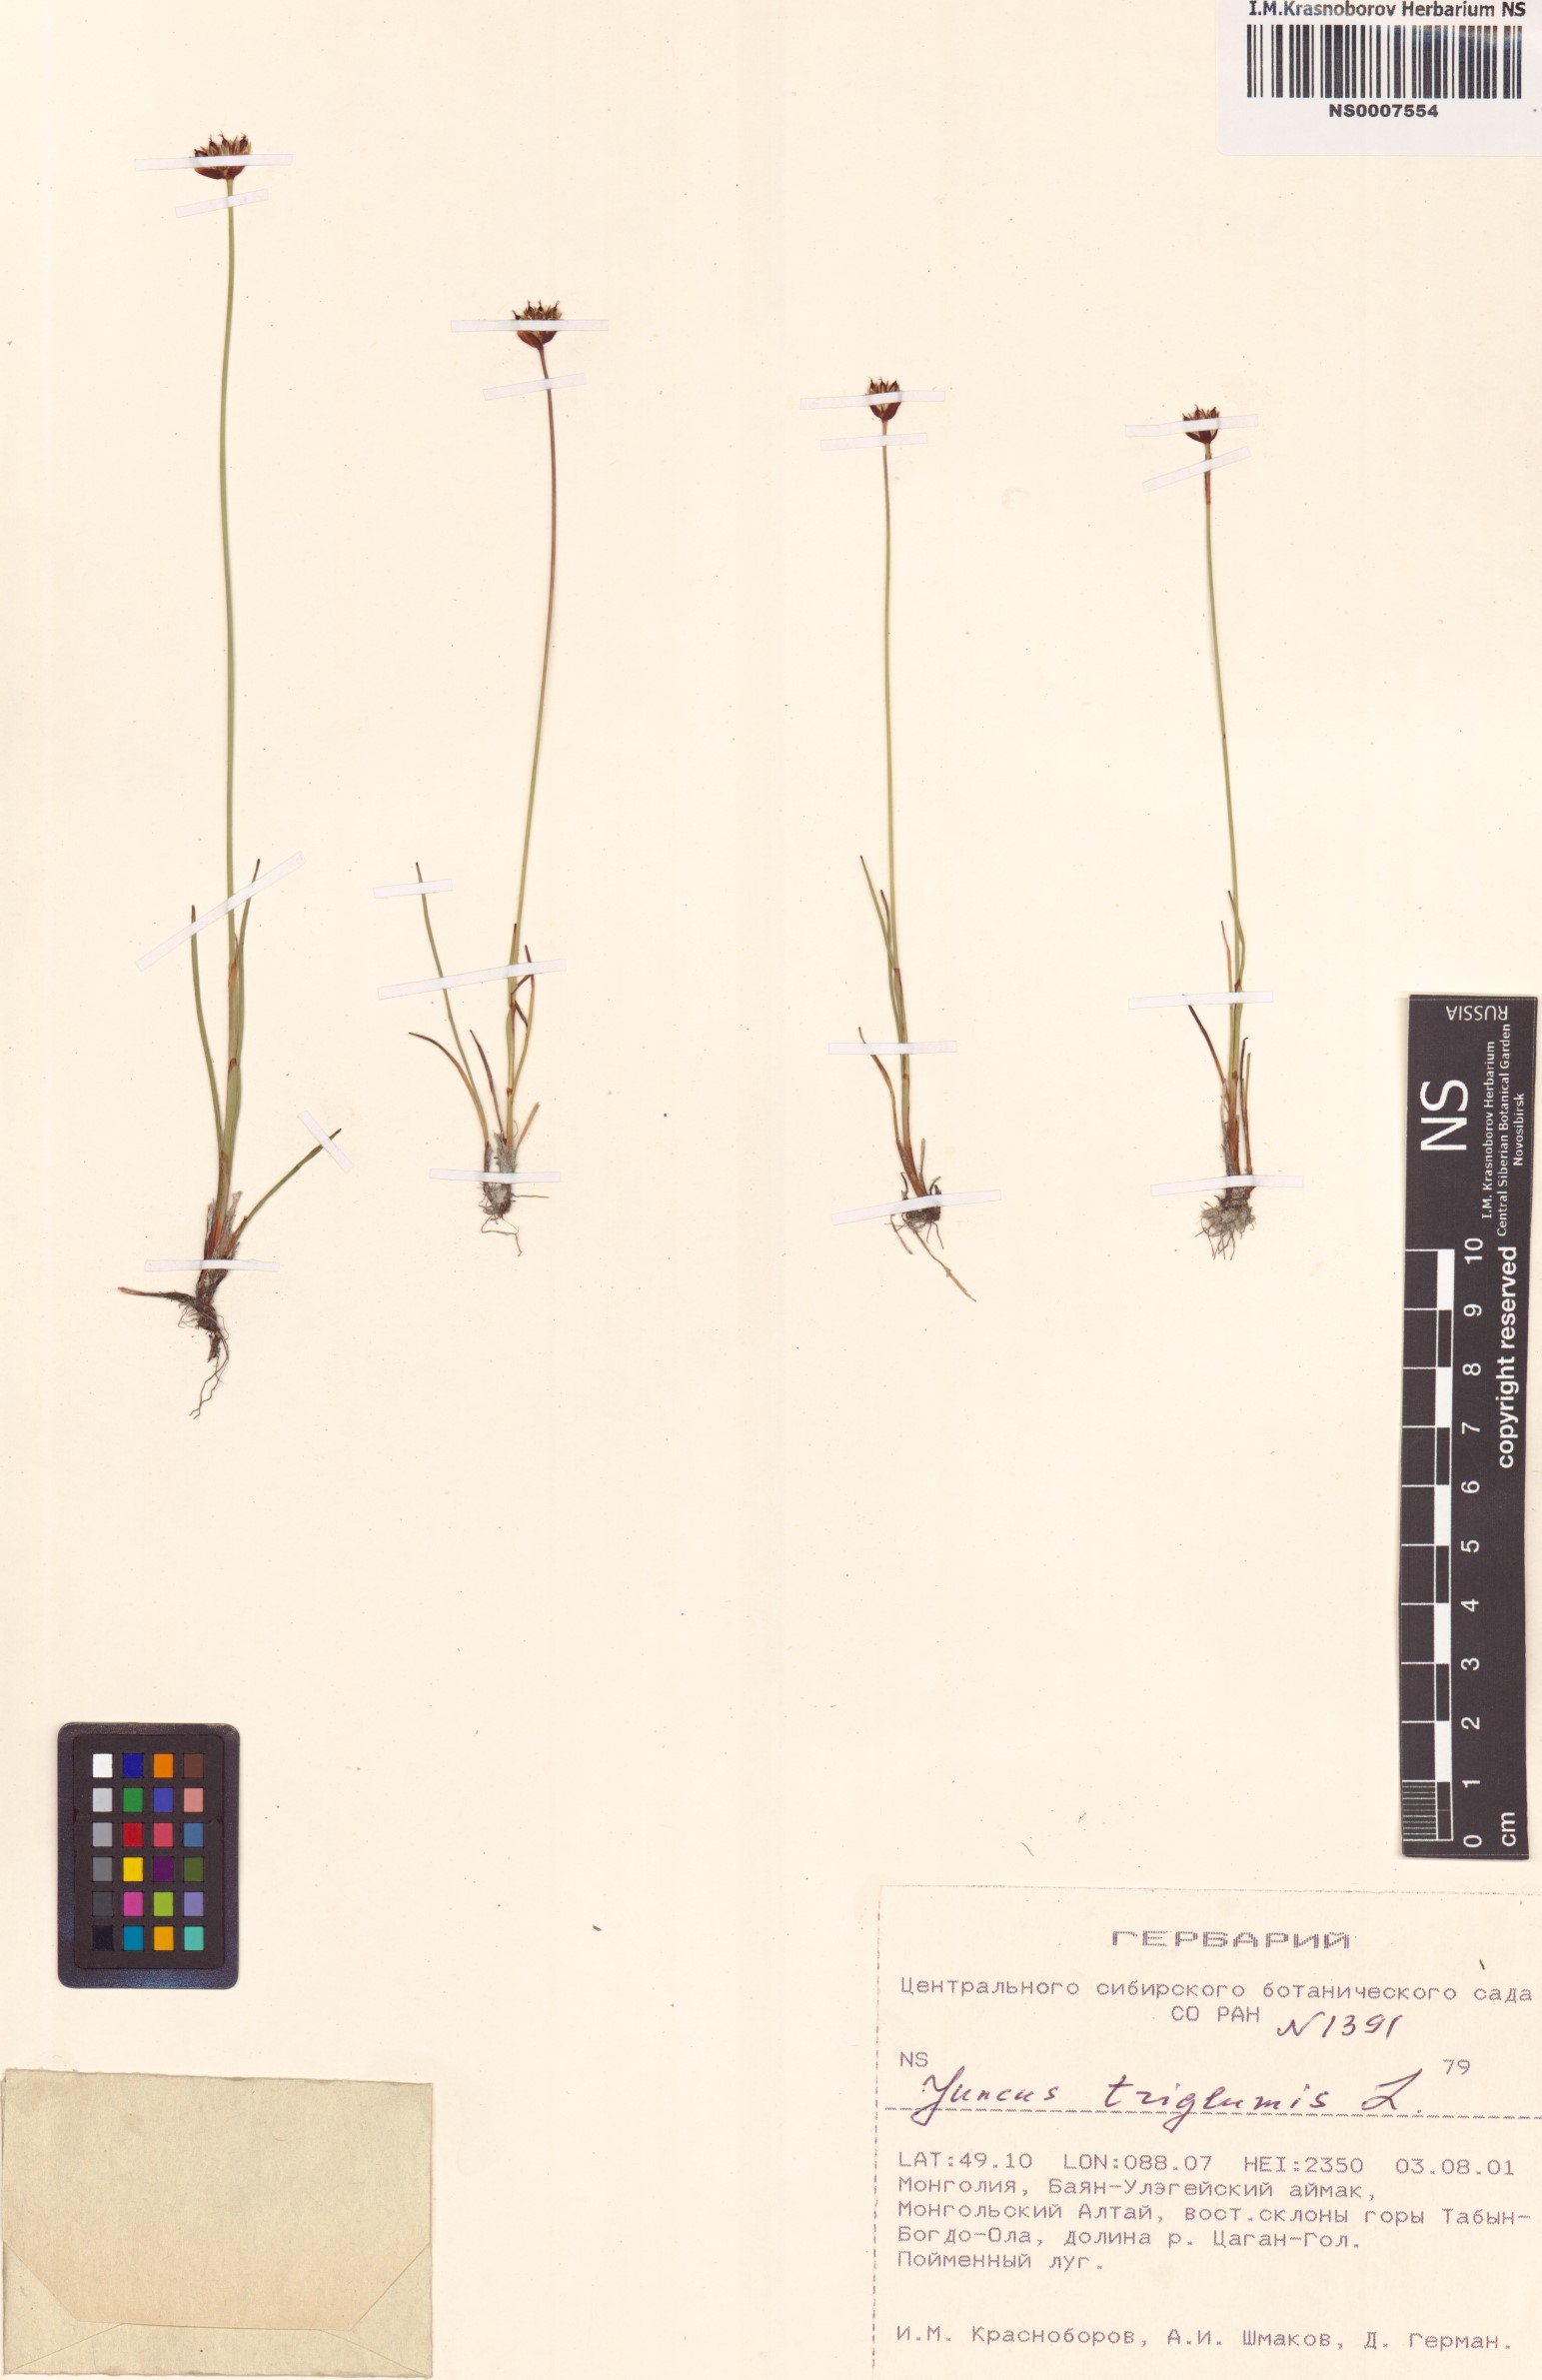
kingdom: Plantae
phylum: Tracheophyta
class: Liliopsida
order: Poales
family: Juncaceae
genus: Juncus
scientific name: Juncus triglumis
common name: Three-flowered rush
